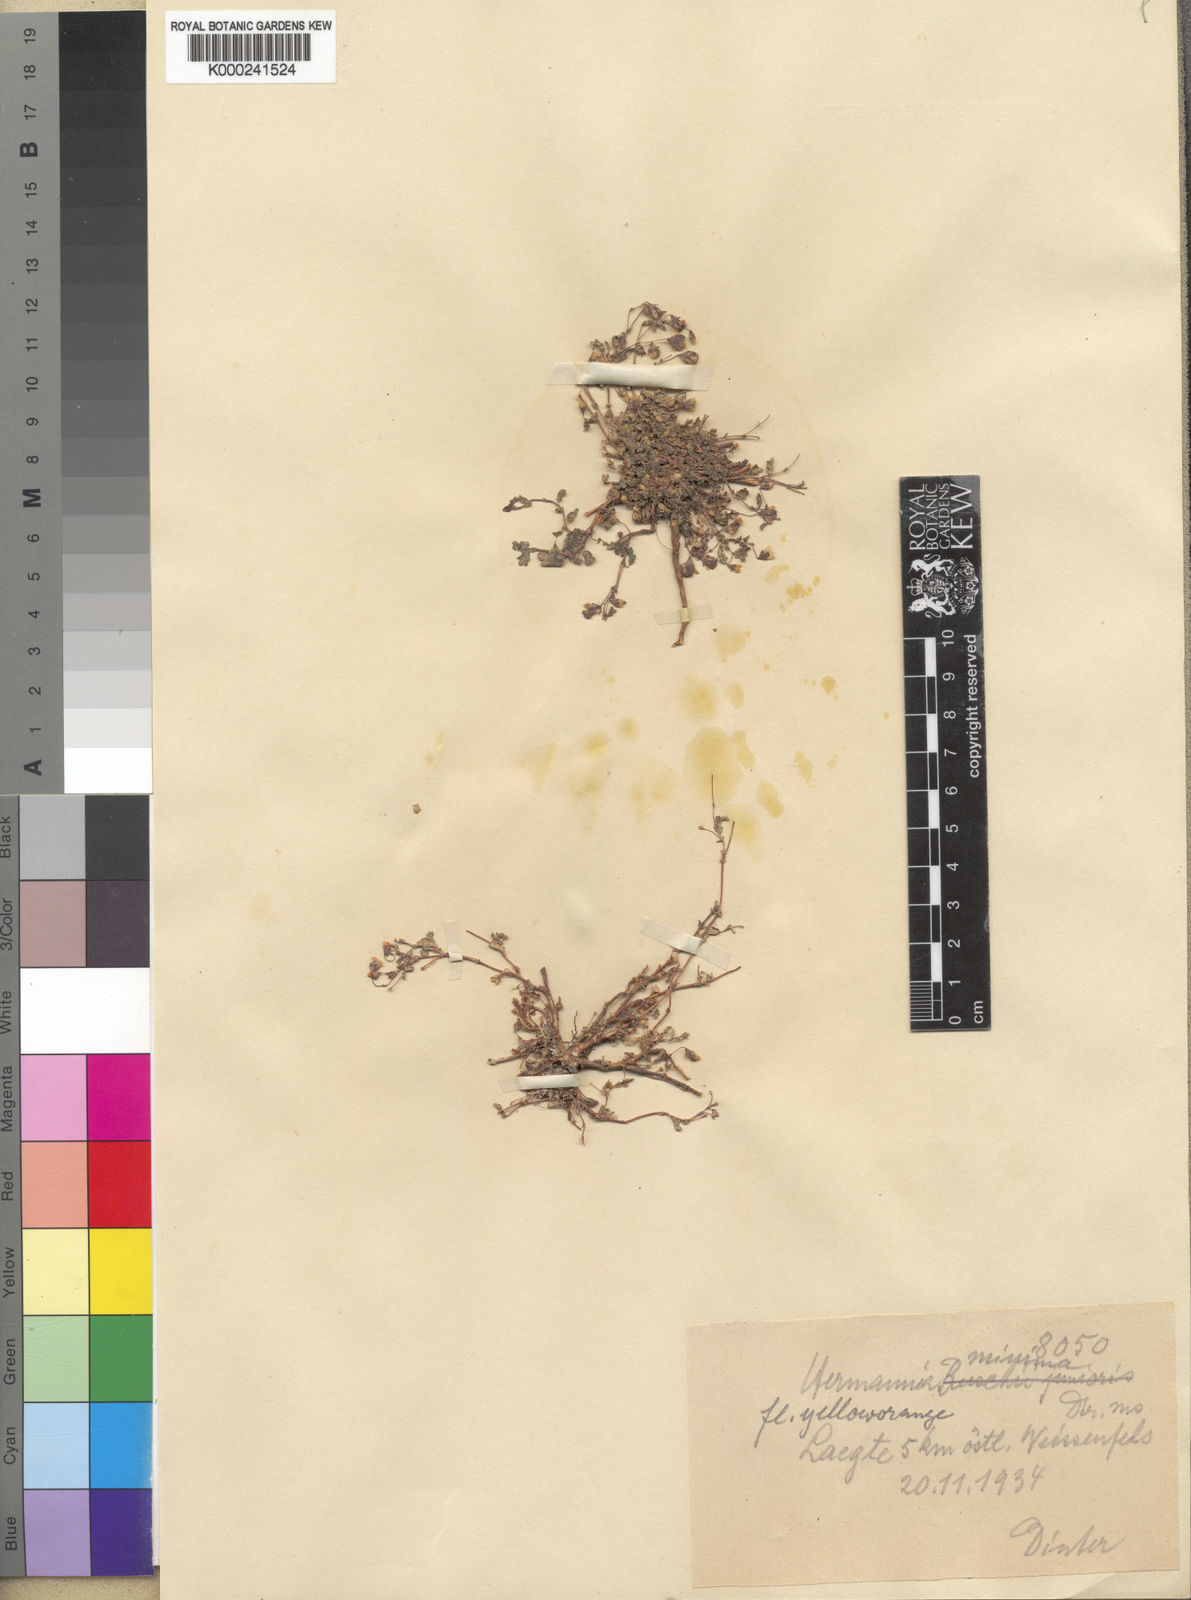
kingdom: Plantae
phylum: Tracheophyta
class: Magnoliopsida
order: Malvales
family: Malvaceae
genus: Hermannia
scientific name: Hermannia argillicola
